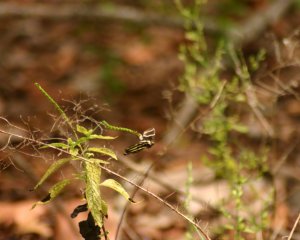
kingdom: Animalia
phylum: Arthropoda
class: Insecta
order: Lepidoptera
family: Nymphalidae
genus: Heliconius
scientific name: Heliconius charithonia
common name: Zebra Longwing
